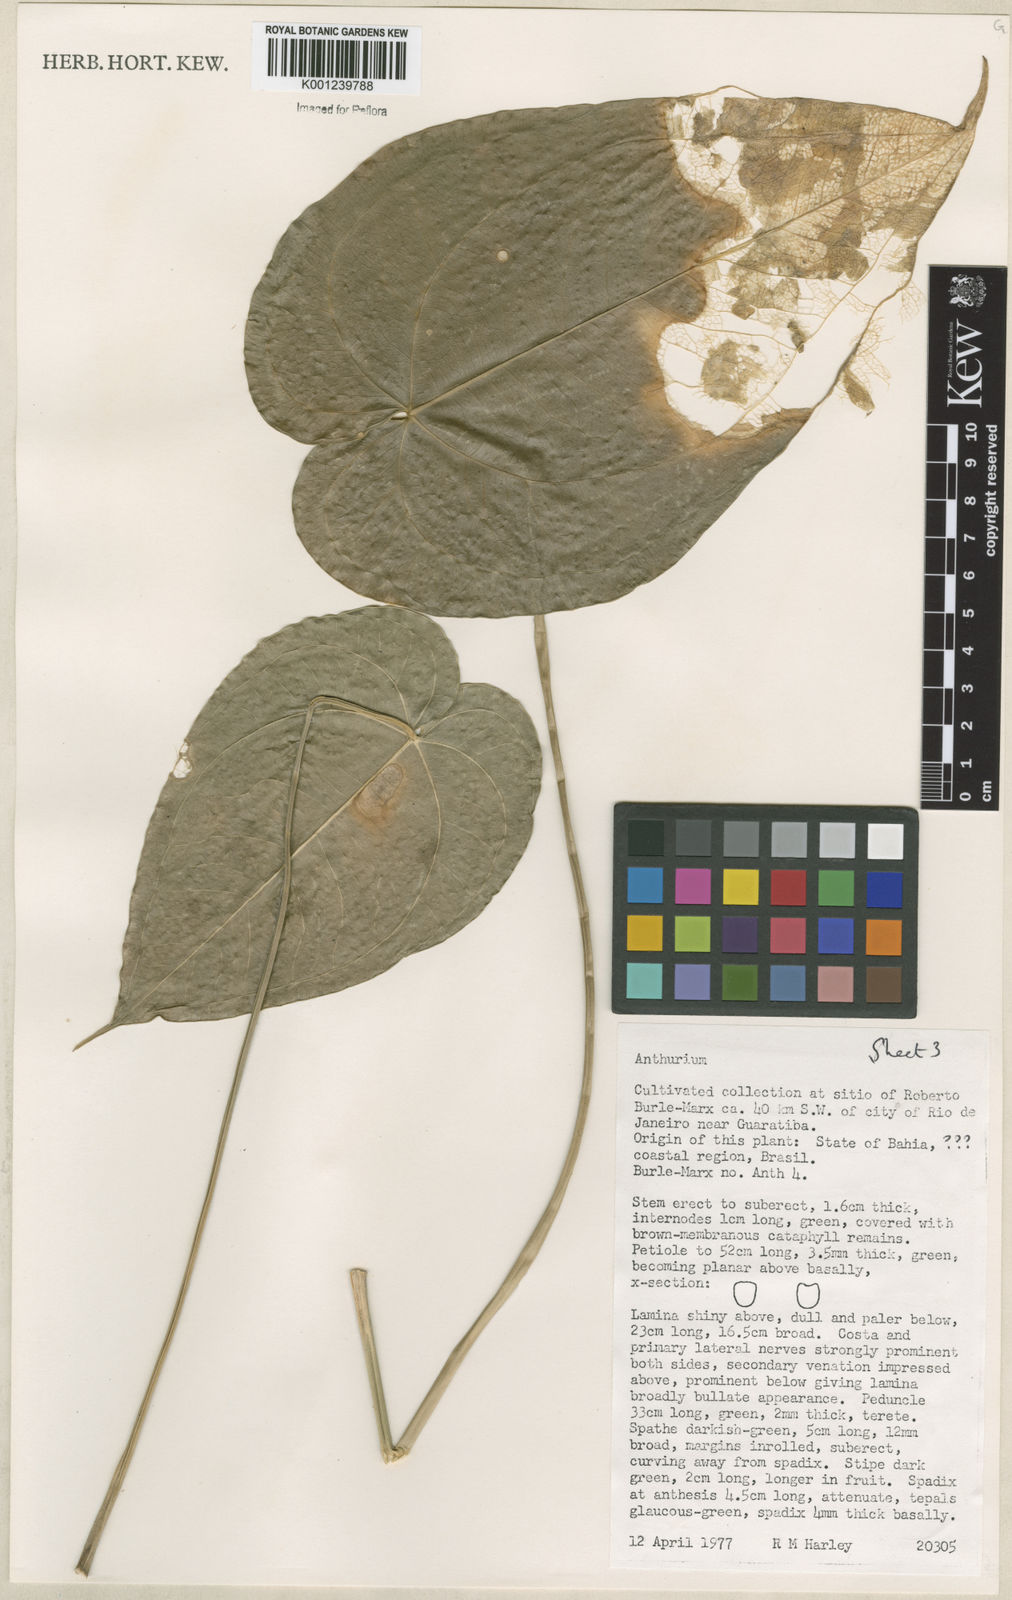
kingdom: Plantae
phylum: Tracheophyta
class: Liliopsida
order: Alismatales
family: Araceae
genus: Anthurium
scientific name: Anthurium
